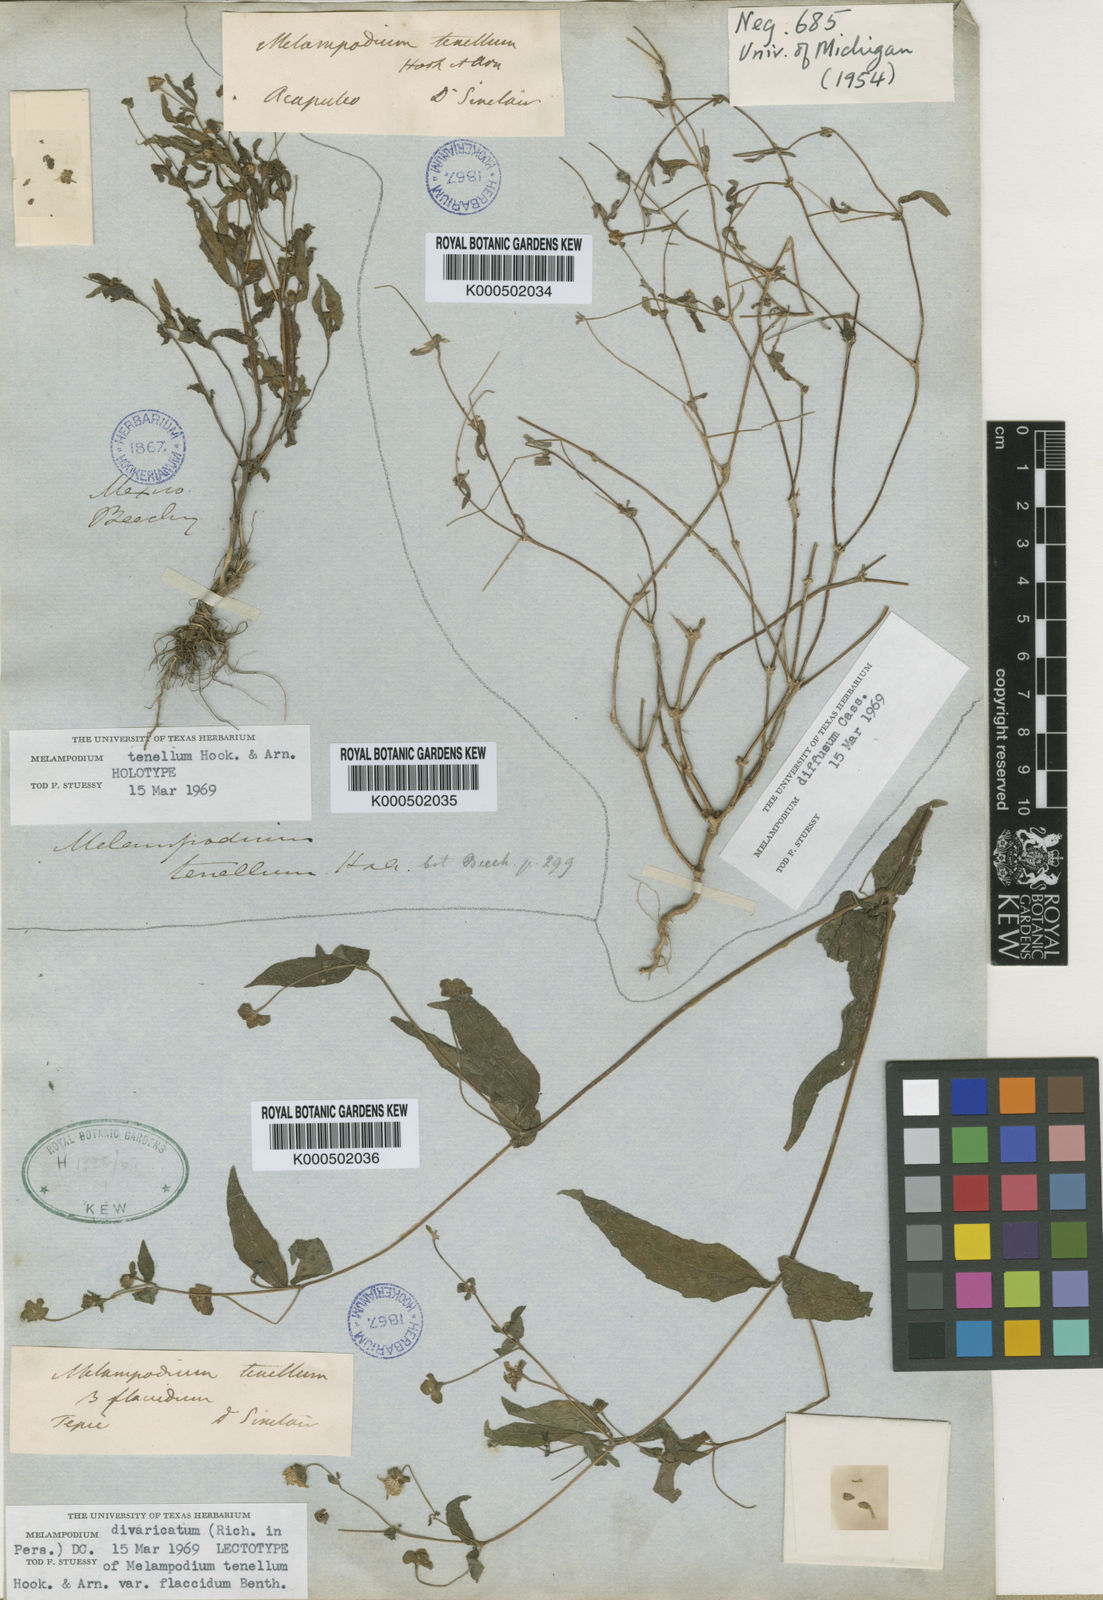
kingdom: Plantae
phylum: Tracheophyta
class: Magnoliopsida
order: Asterales
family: Asteraceae
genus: Melampodium
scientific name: Melampodium tenellum
